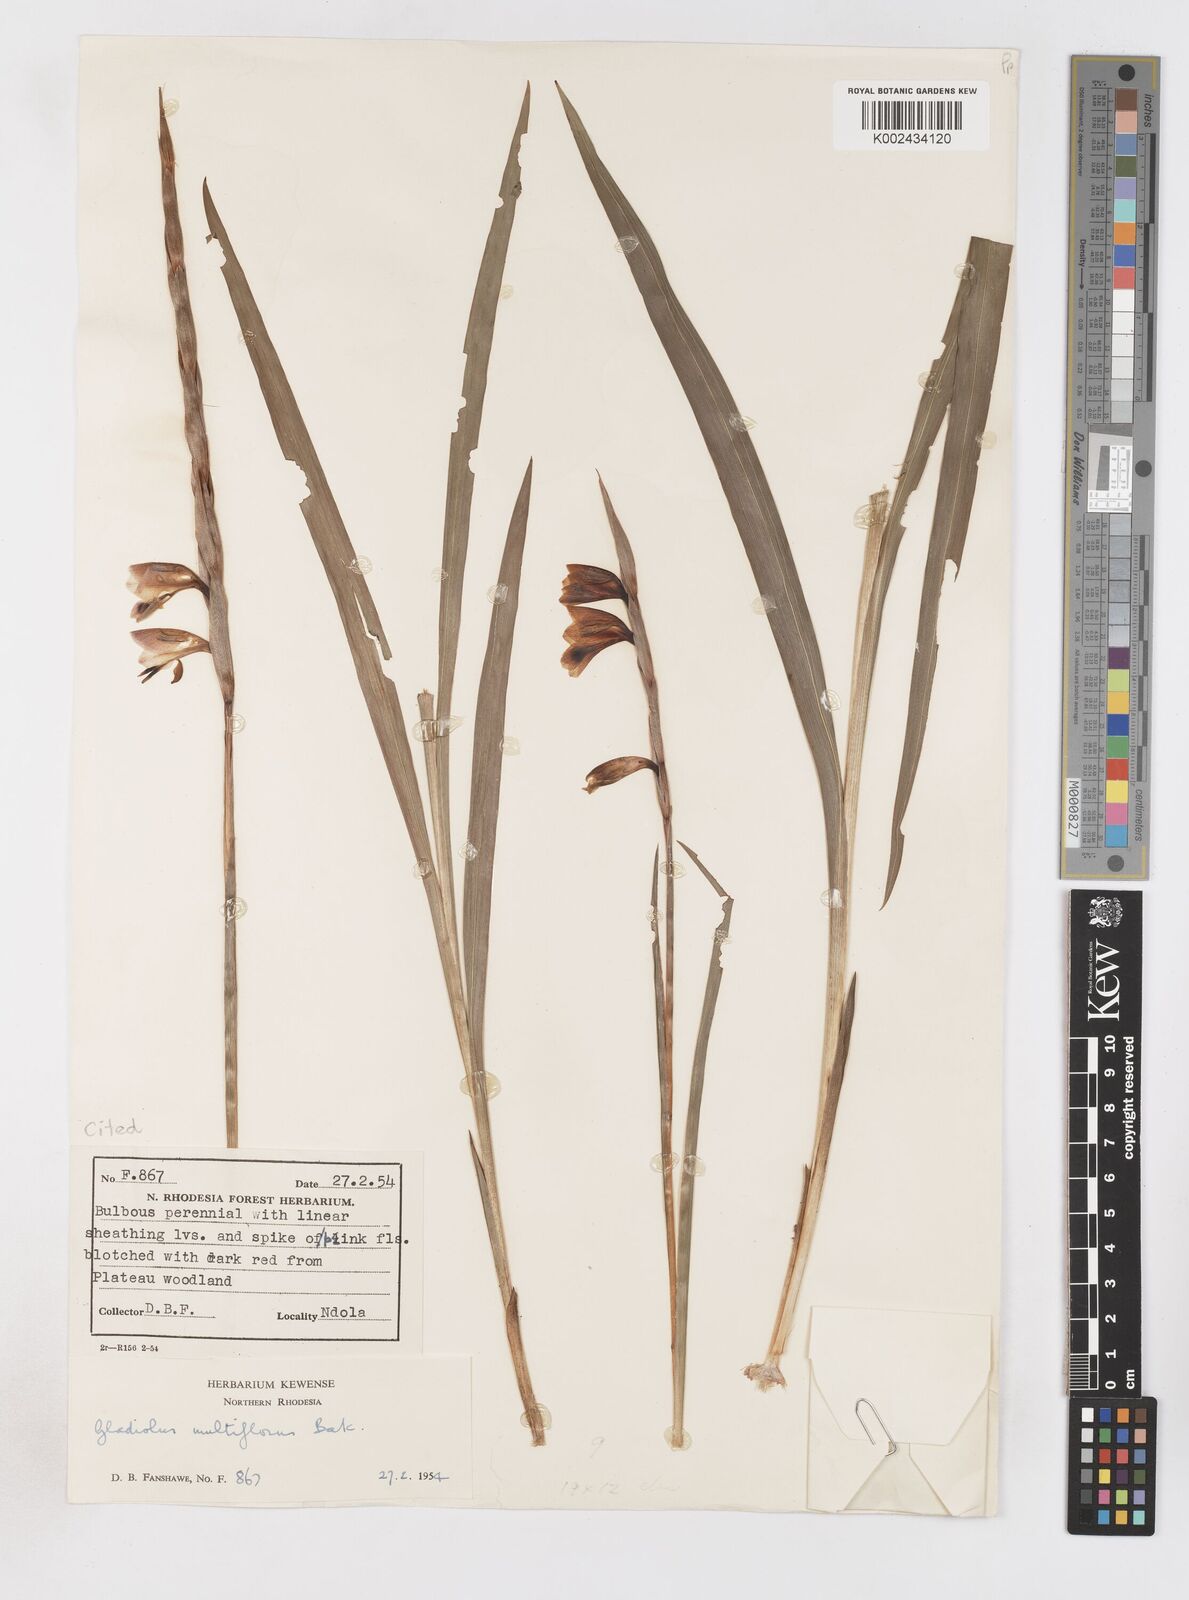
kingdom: Plantae
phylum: Tracheophyta
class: Liliopsida
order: Asparagales
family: Iridaceae
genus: Gladiolus
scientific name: Gladiolus gregarius
